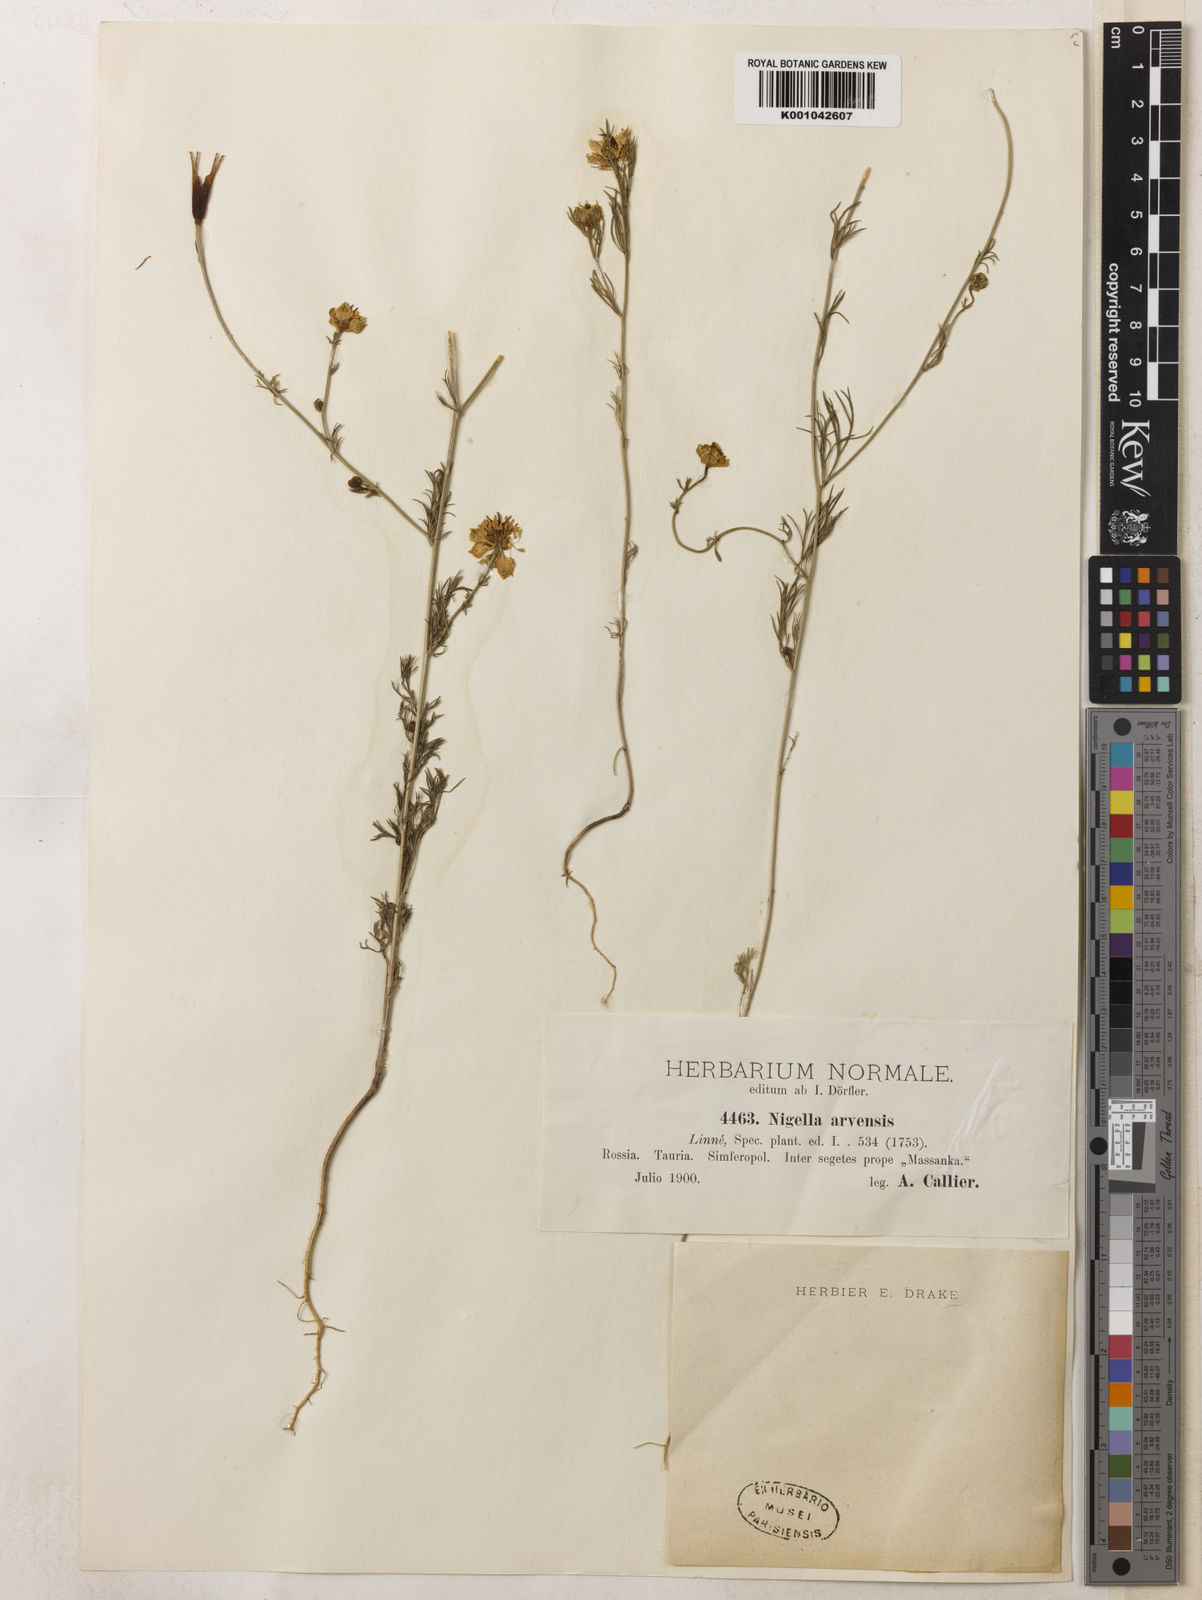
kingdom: Plantae
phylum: Tracheophyta
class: Magnoliopsida
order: Ranunculales
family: Ranunculaceae
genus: Nigella
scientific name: Nigella arvensis
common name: Wild fennel-flower
